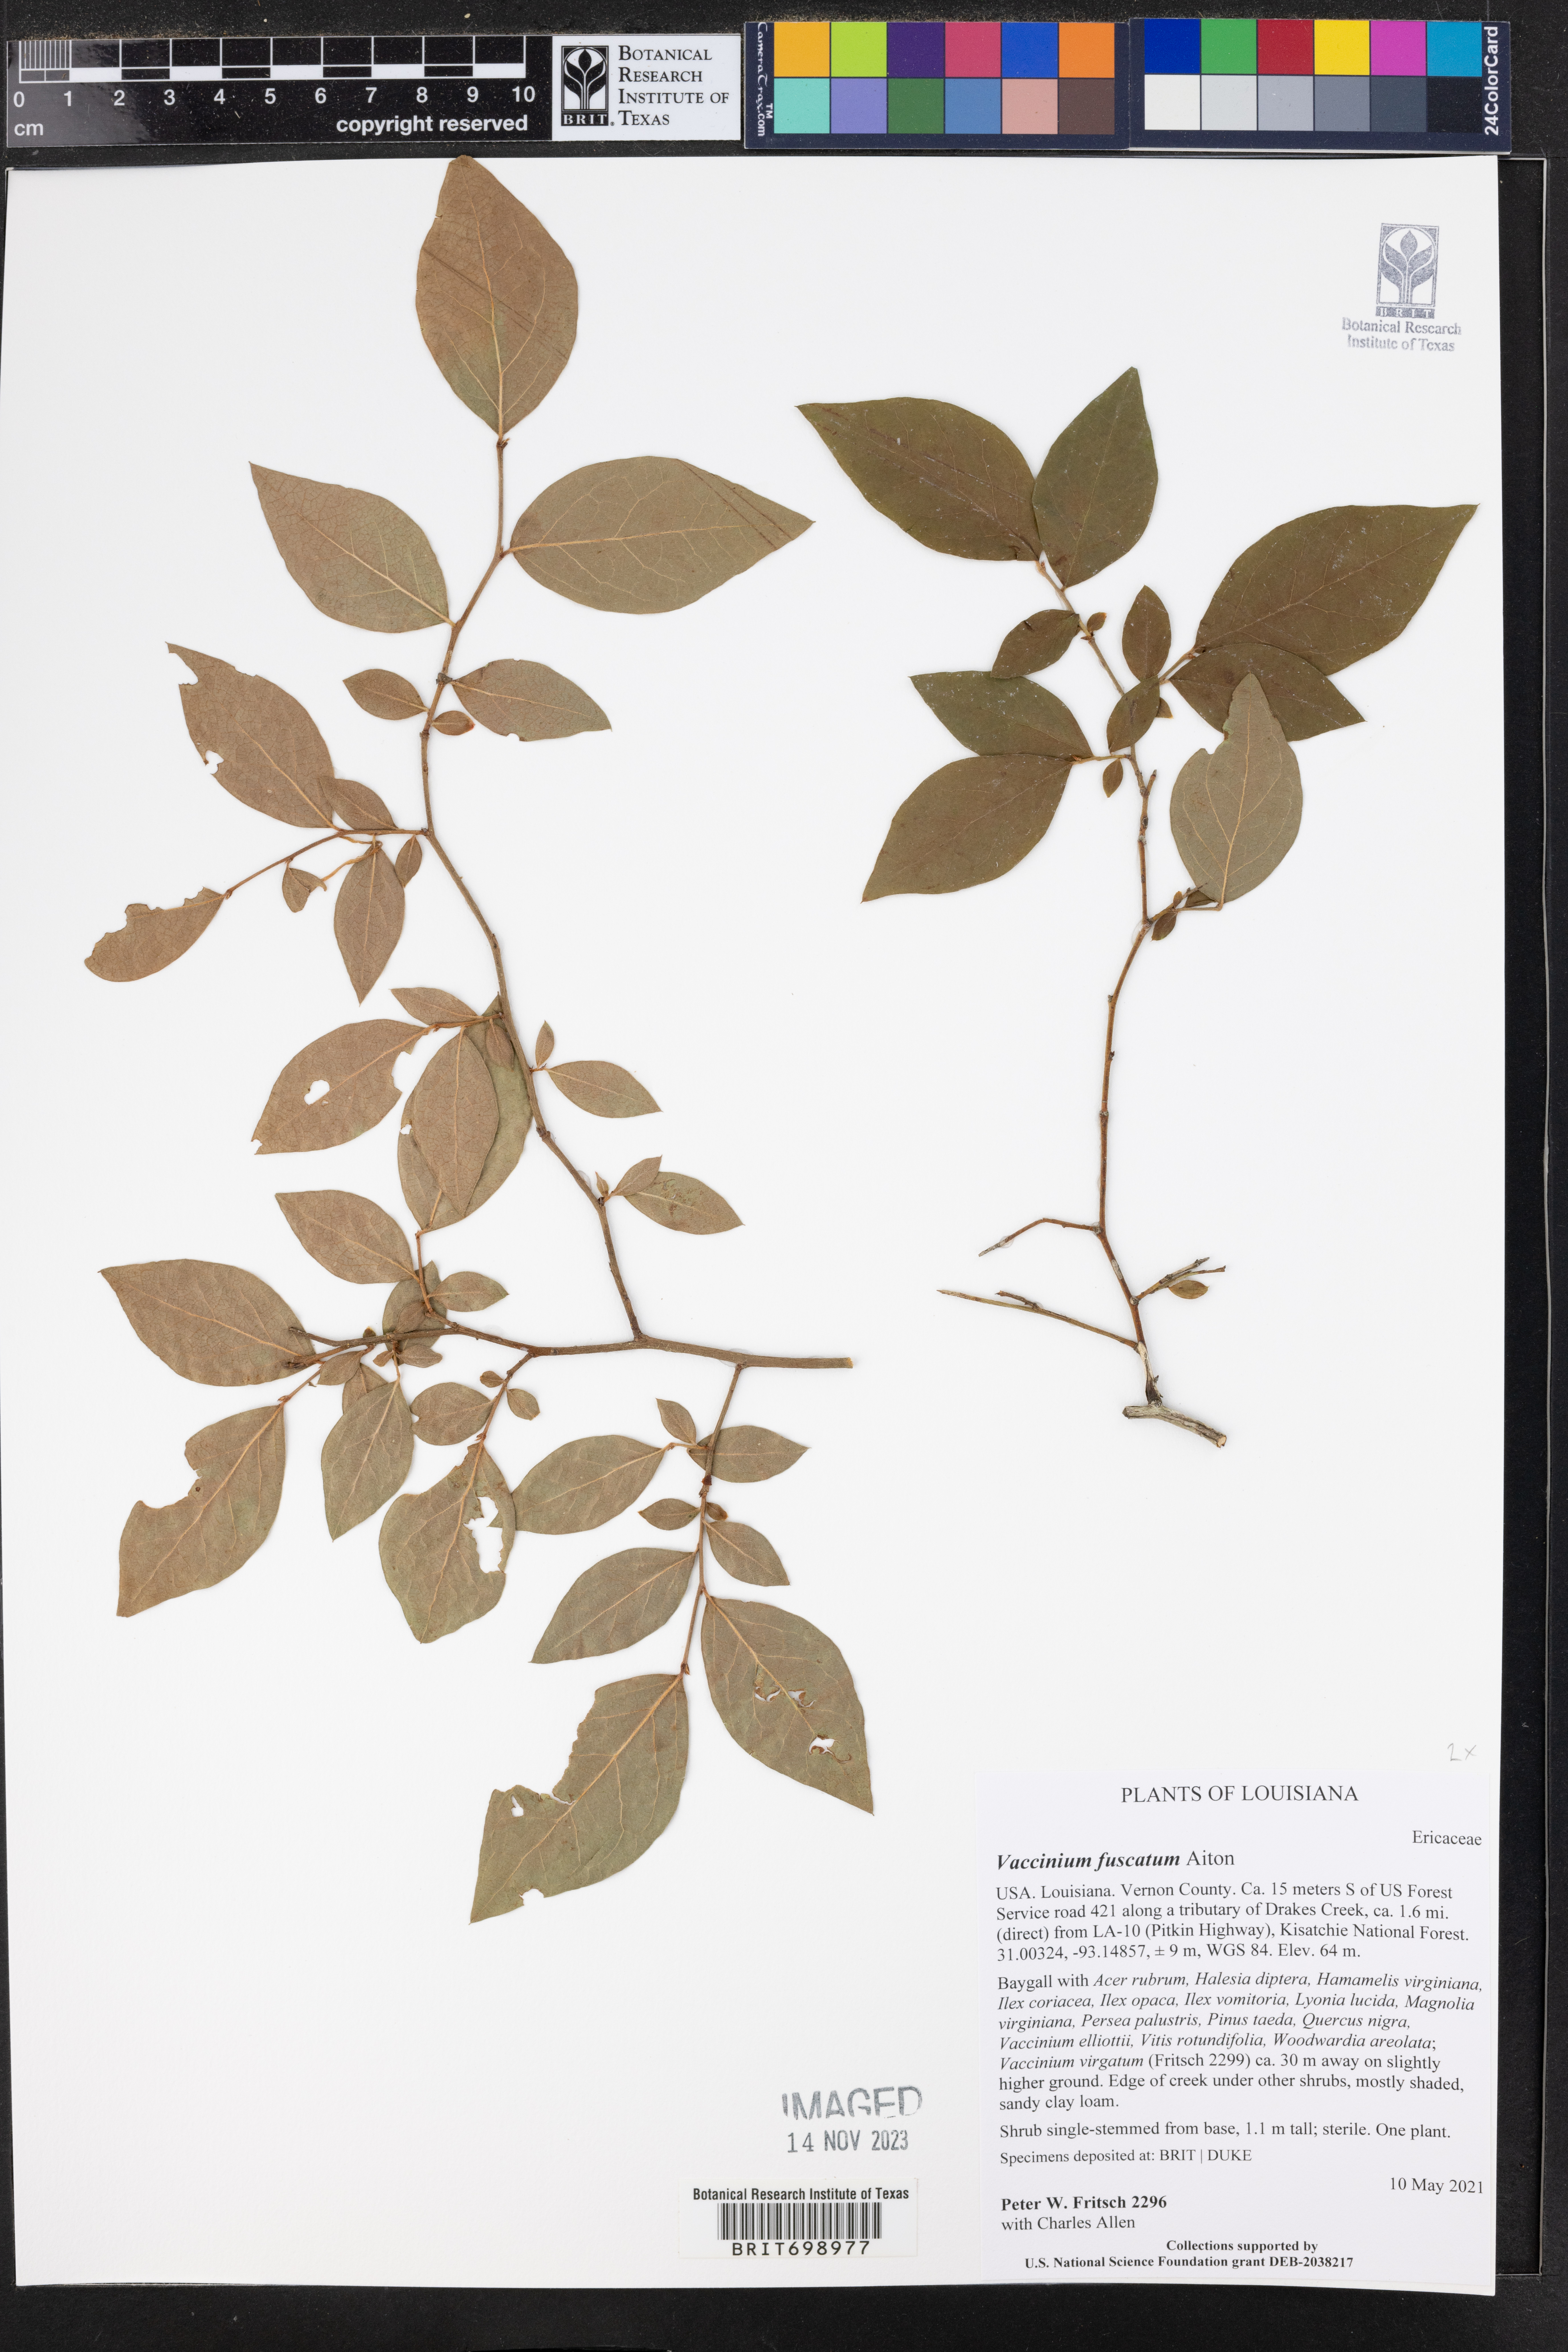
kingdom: Plantae
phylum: Tracheophyta
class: Magnoliopsida
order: Ericales
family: Ericaceae
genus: Vaccinium
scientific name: Vaccinium corymbosum
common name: Blueberry
